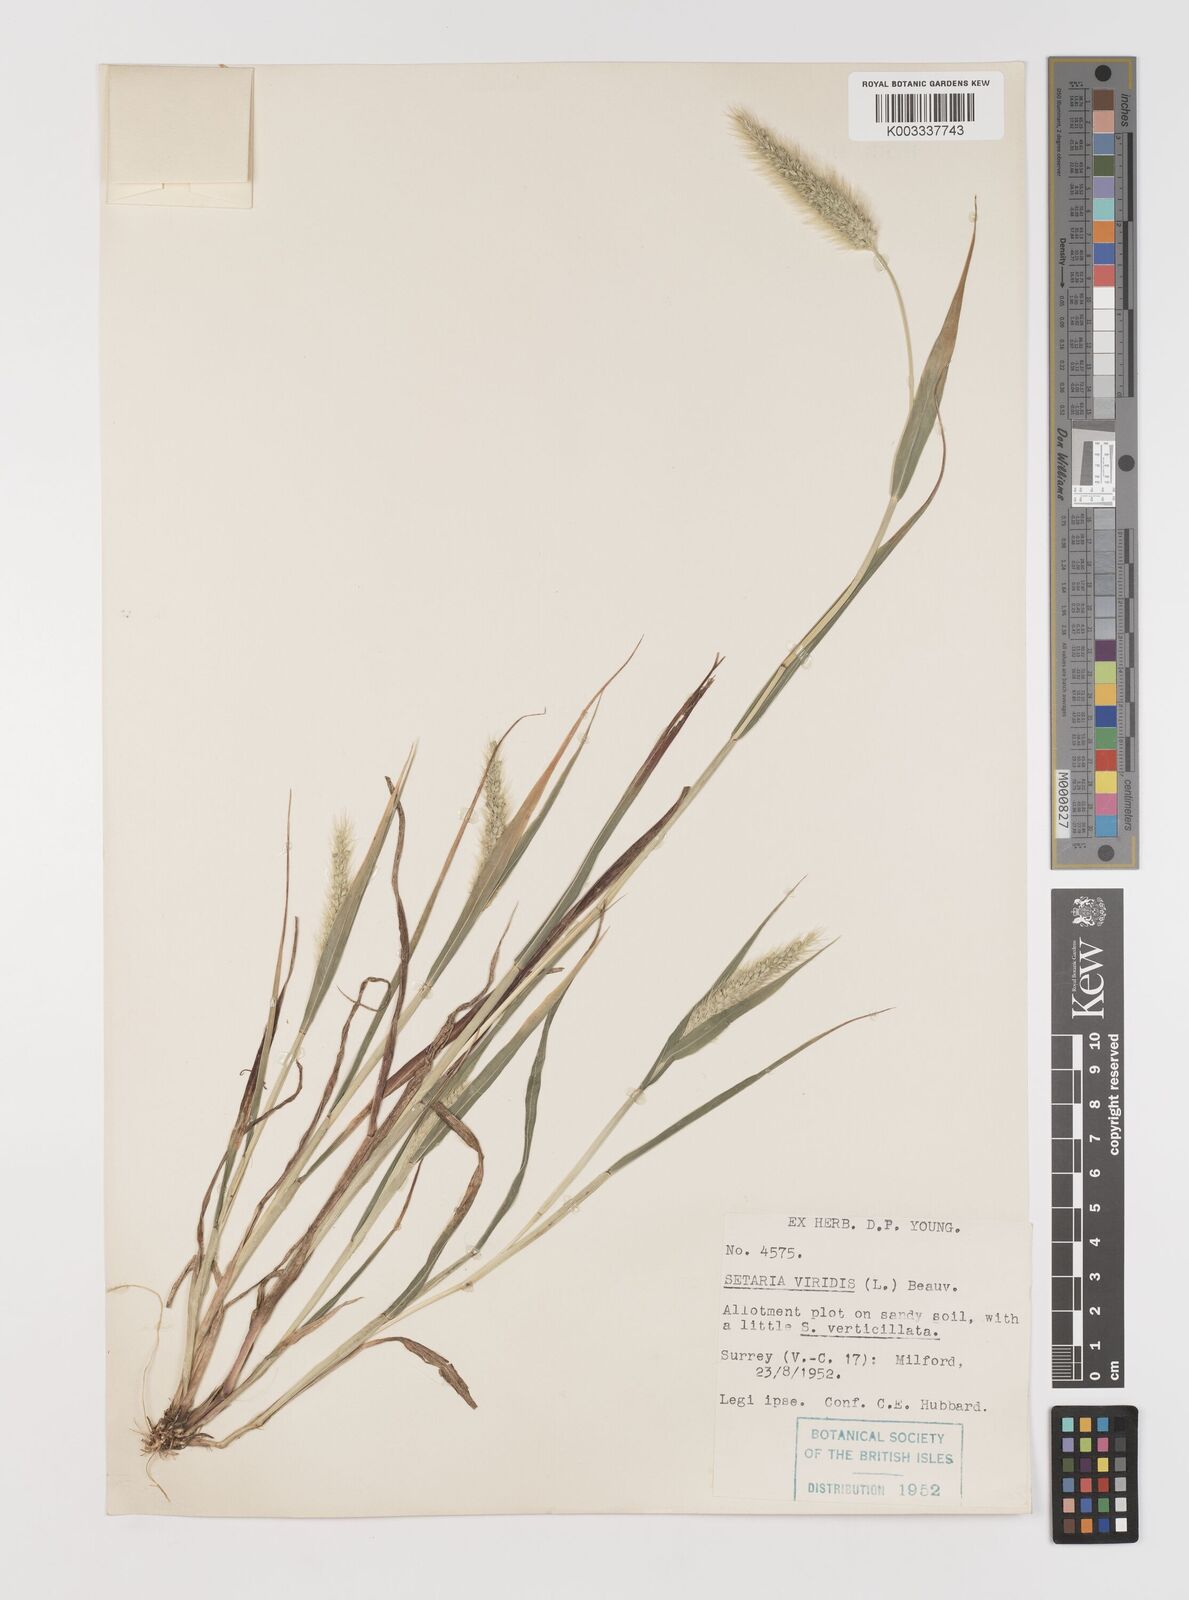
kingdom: Plantae
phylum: Tracheophyta
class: Liliopsida
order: Poales
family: Poaceae
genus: Setaria
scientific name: Setaria viridis
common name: Green bristlegrass
